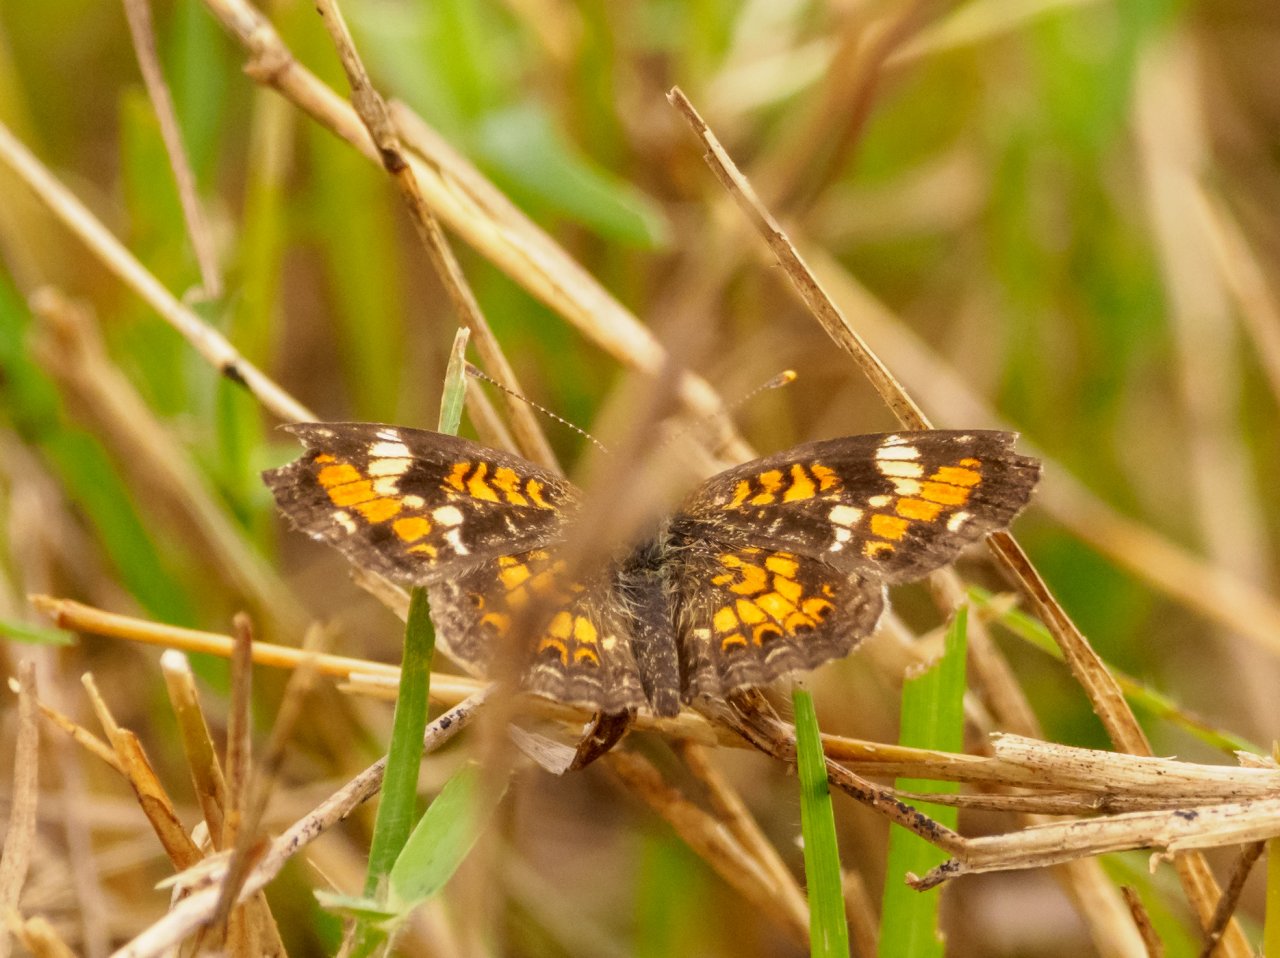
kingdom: Animalia
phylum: Arthropoda
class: Insecta
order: Lepidoptera
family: Nymphalidae
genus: Phyciodes
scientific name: Phyciodes phaon
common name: Phaon Crescent
